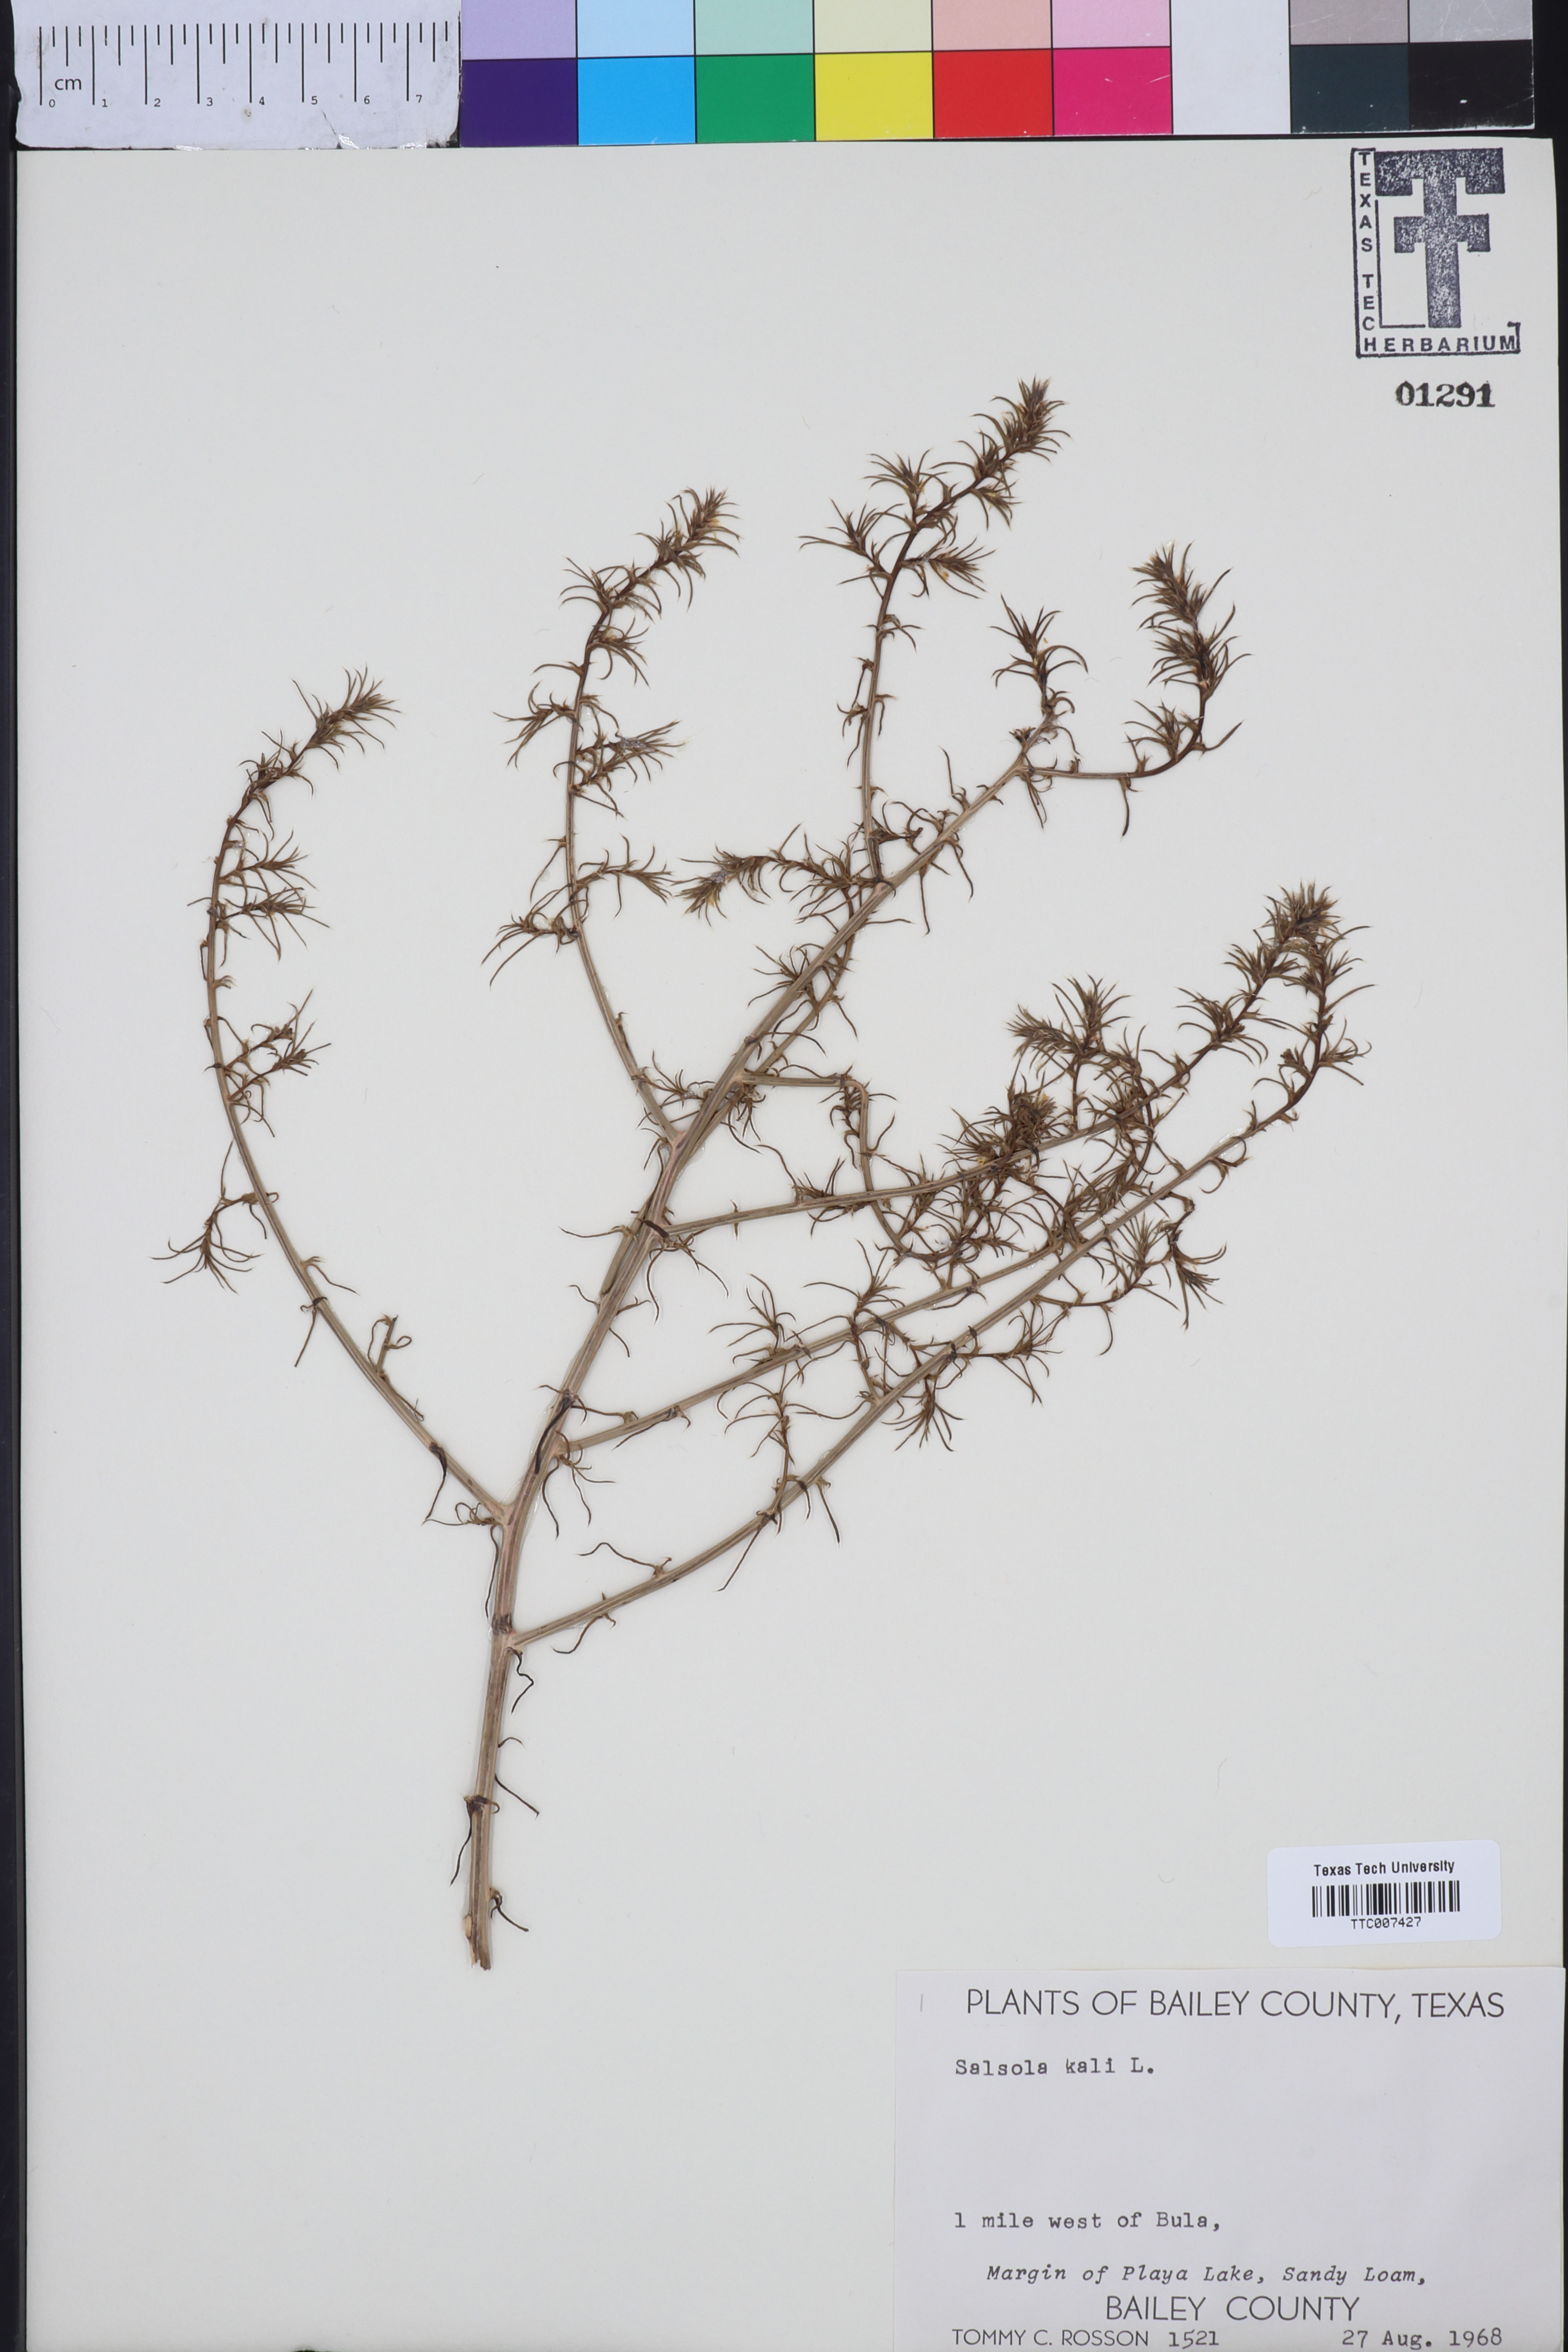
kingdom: Plantae
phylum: Tracheophyta
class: Magnoliopsida
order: Caryophyllales
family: Amaranthaceae
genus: Salsola
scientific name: Salsola kali
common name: Saltwort
